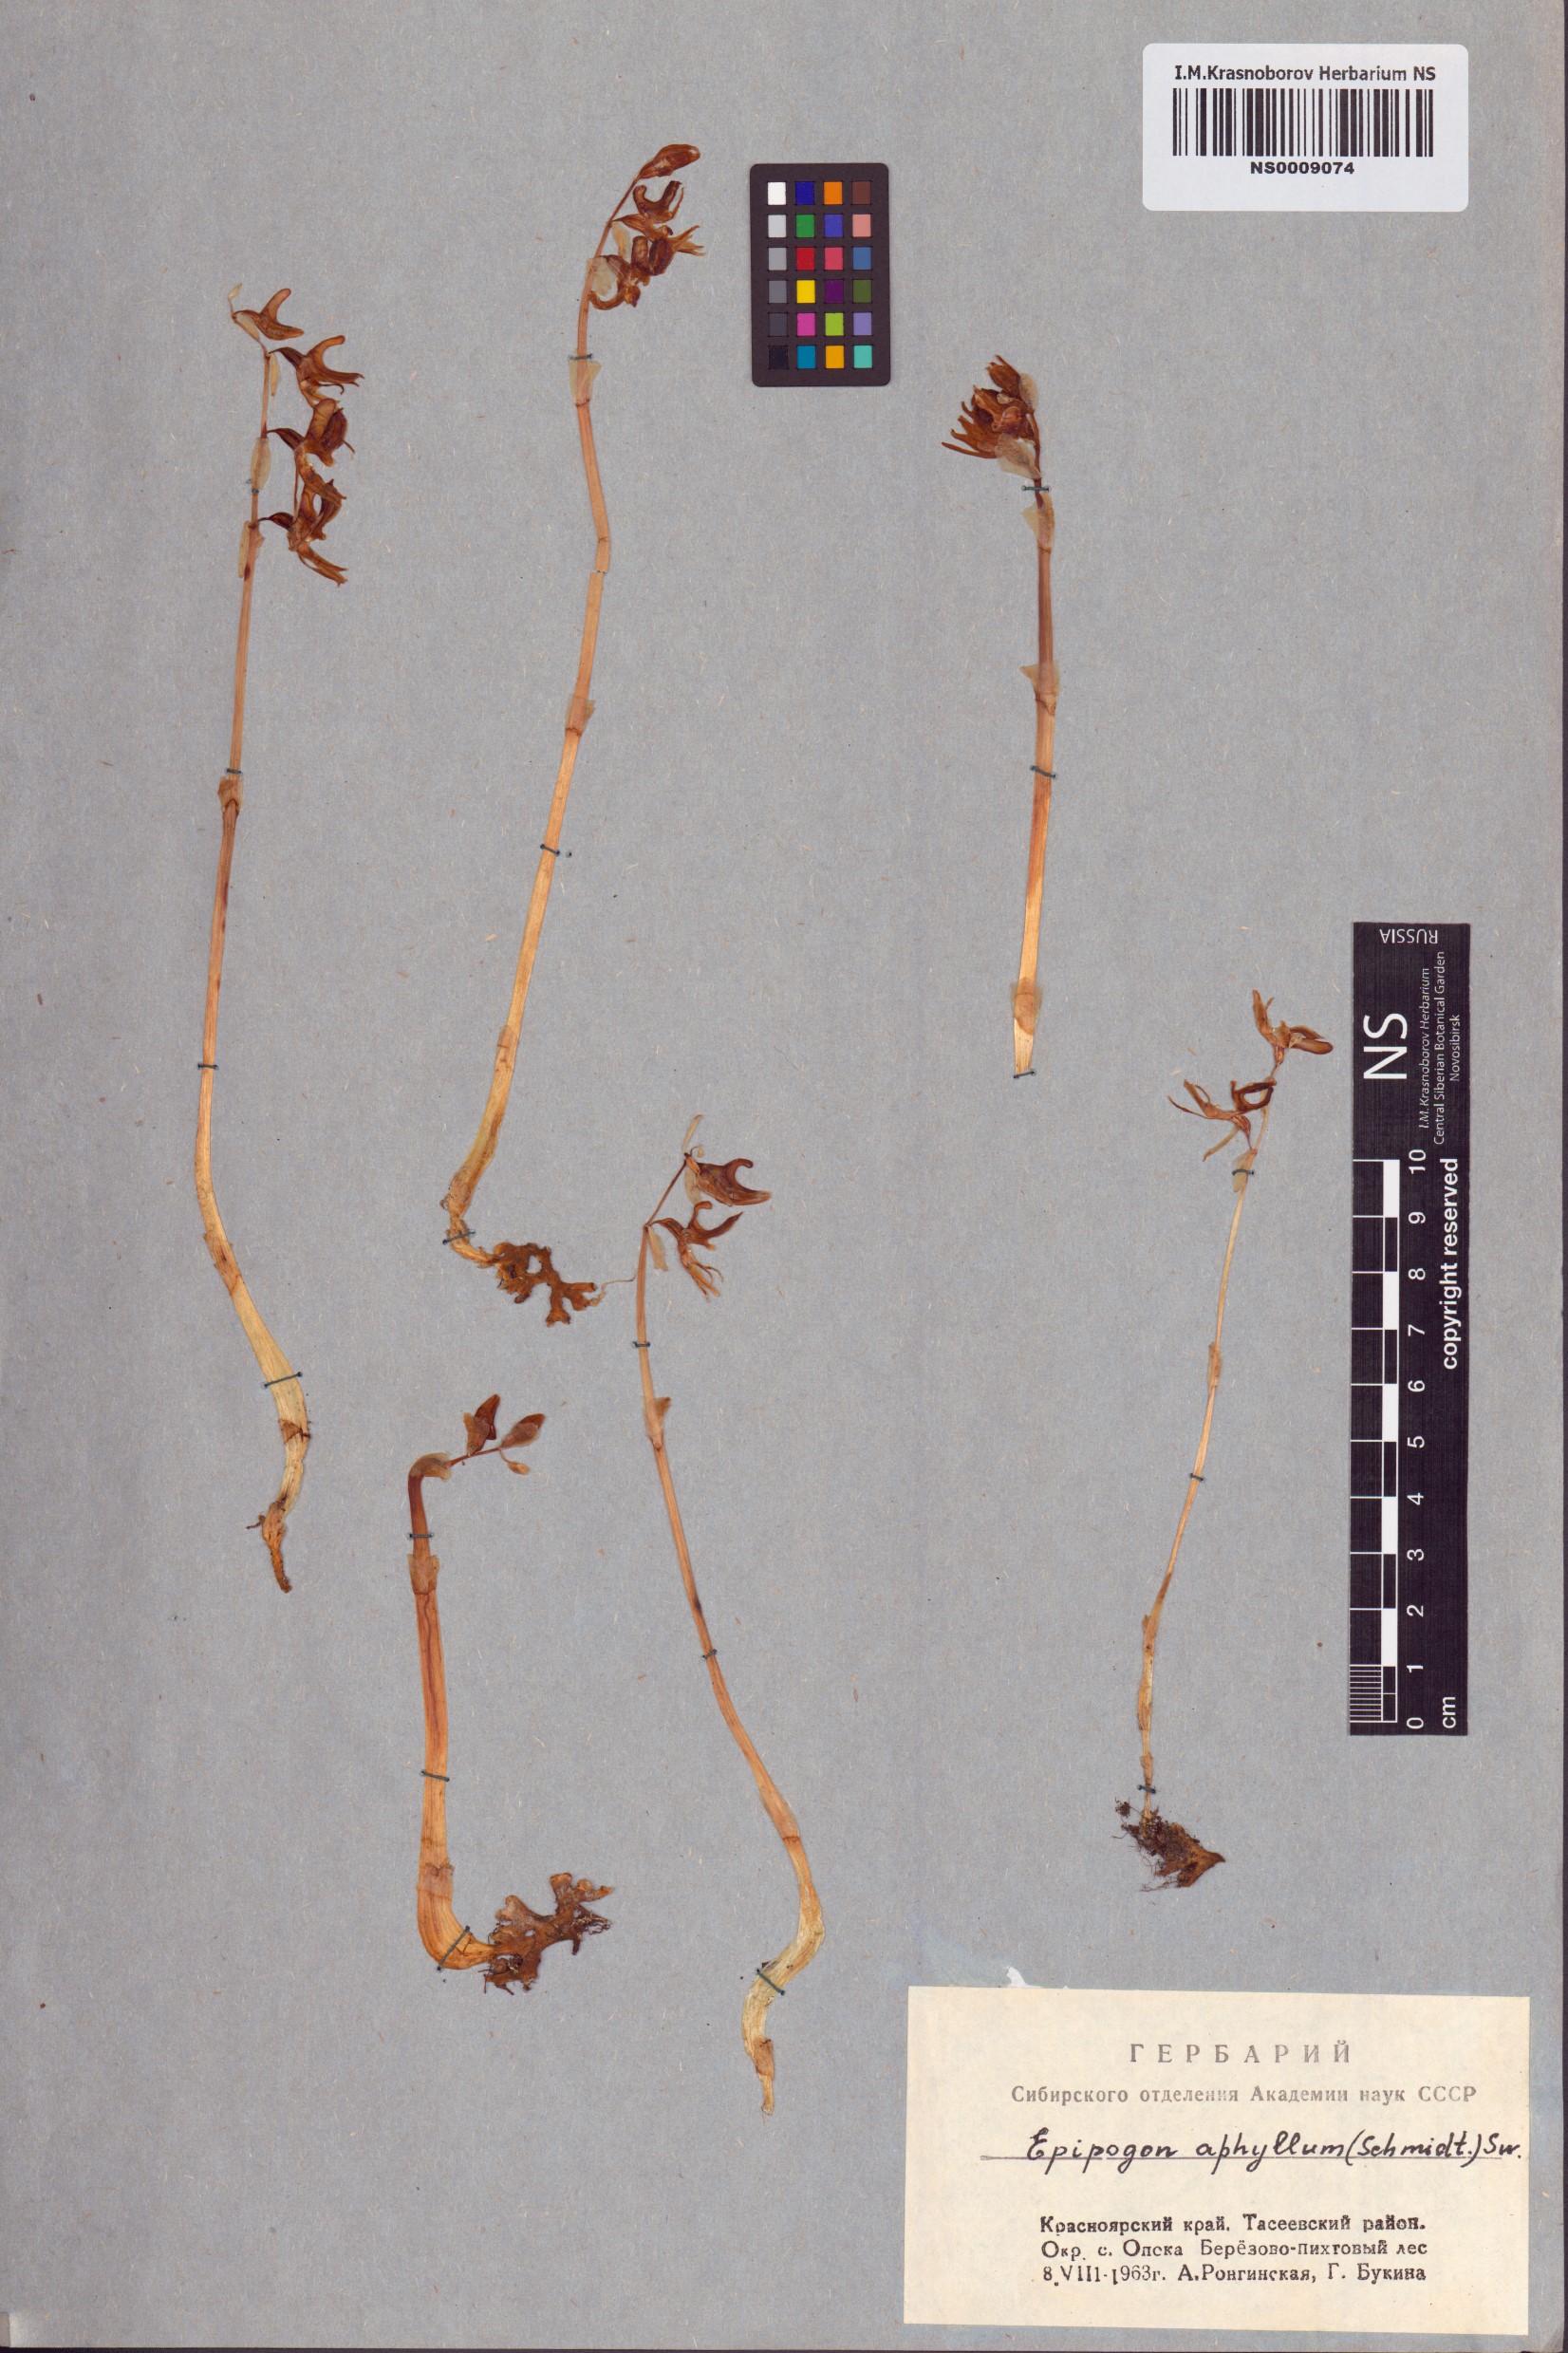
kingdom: Plantae
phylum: Tracheophyta
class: Liliopsida
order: Asparagales
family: Orchidaceae
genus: Epipogium
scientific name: Epipogium aphyllum
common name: Ghost orchid
